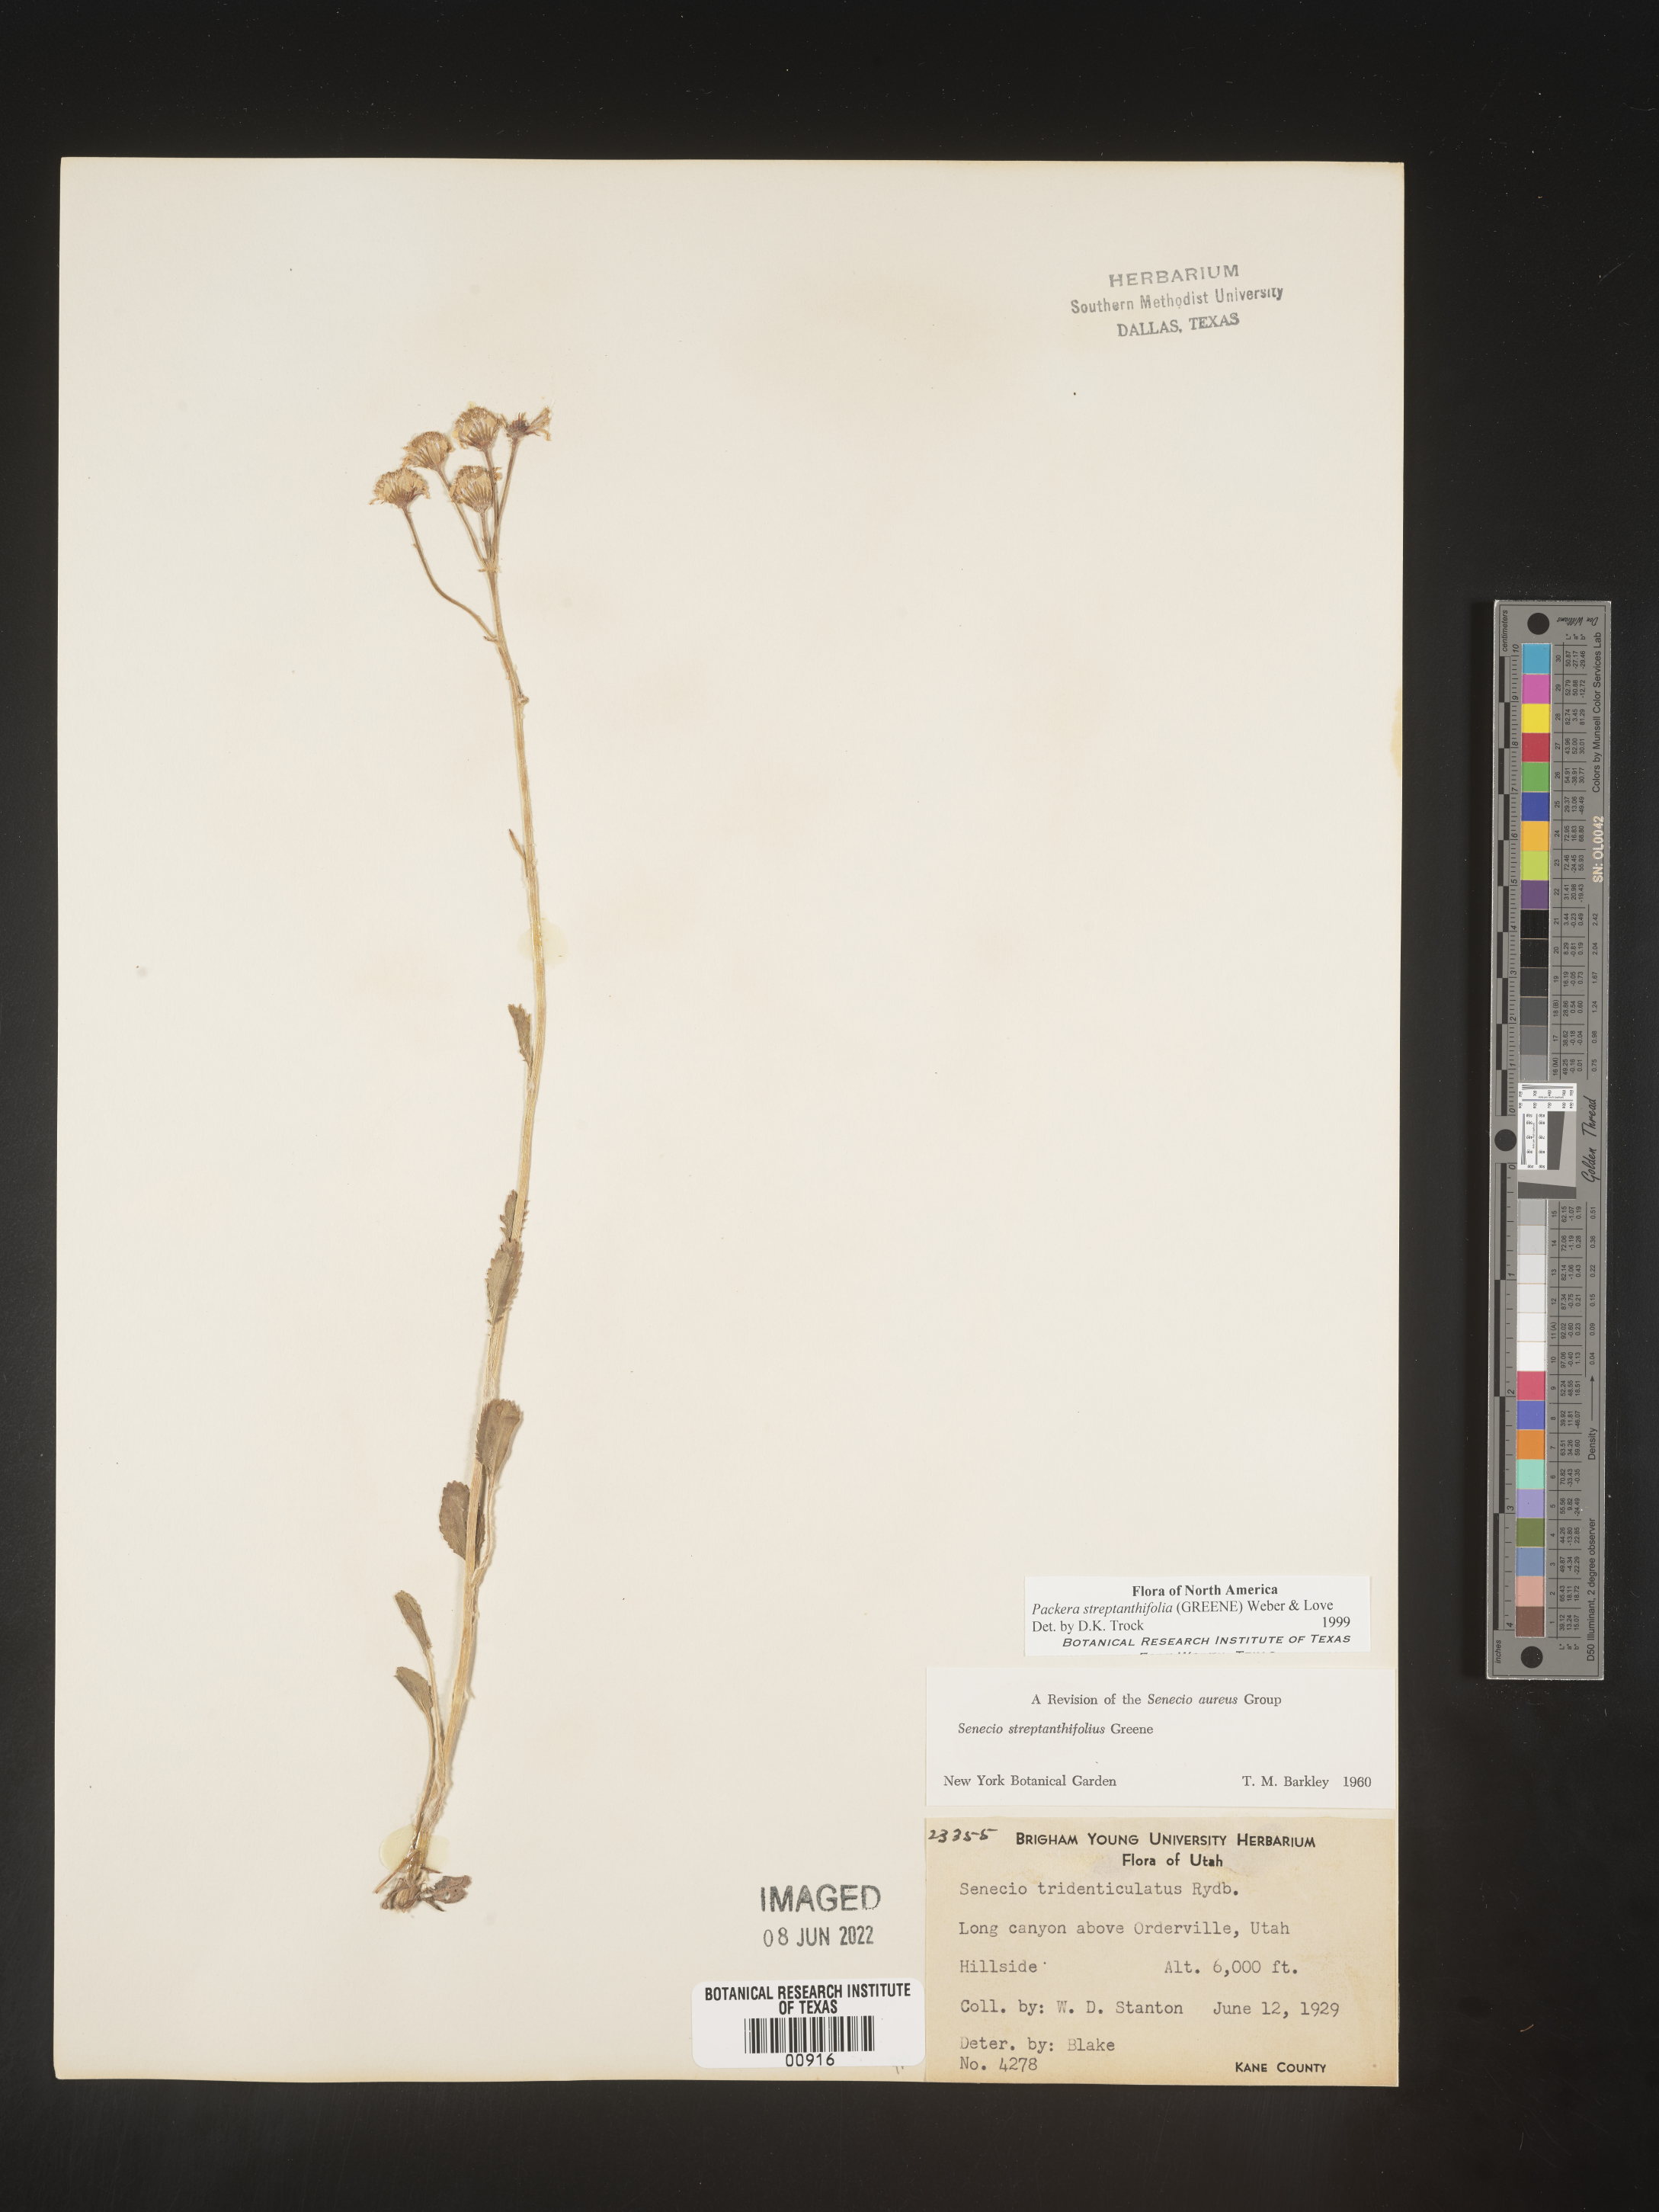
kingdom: Plantae
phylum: Tracheophyta
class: Magnoliopsida
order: Asterales
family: Asteraceae
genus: Packera
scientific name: Packera streptanthifolia
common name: Rocky mountain butterweed
